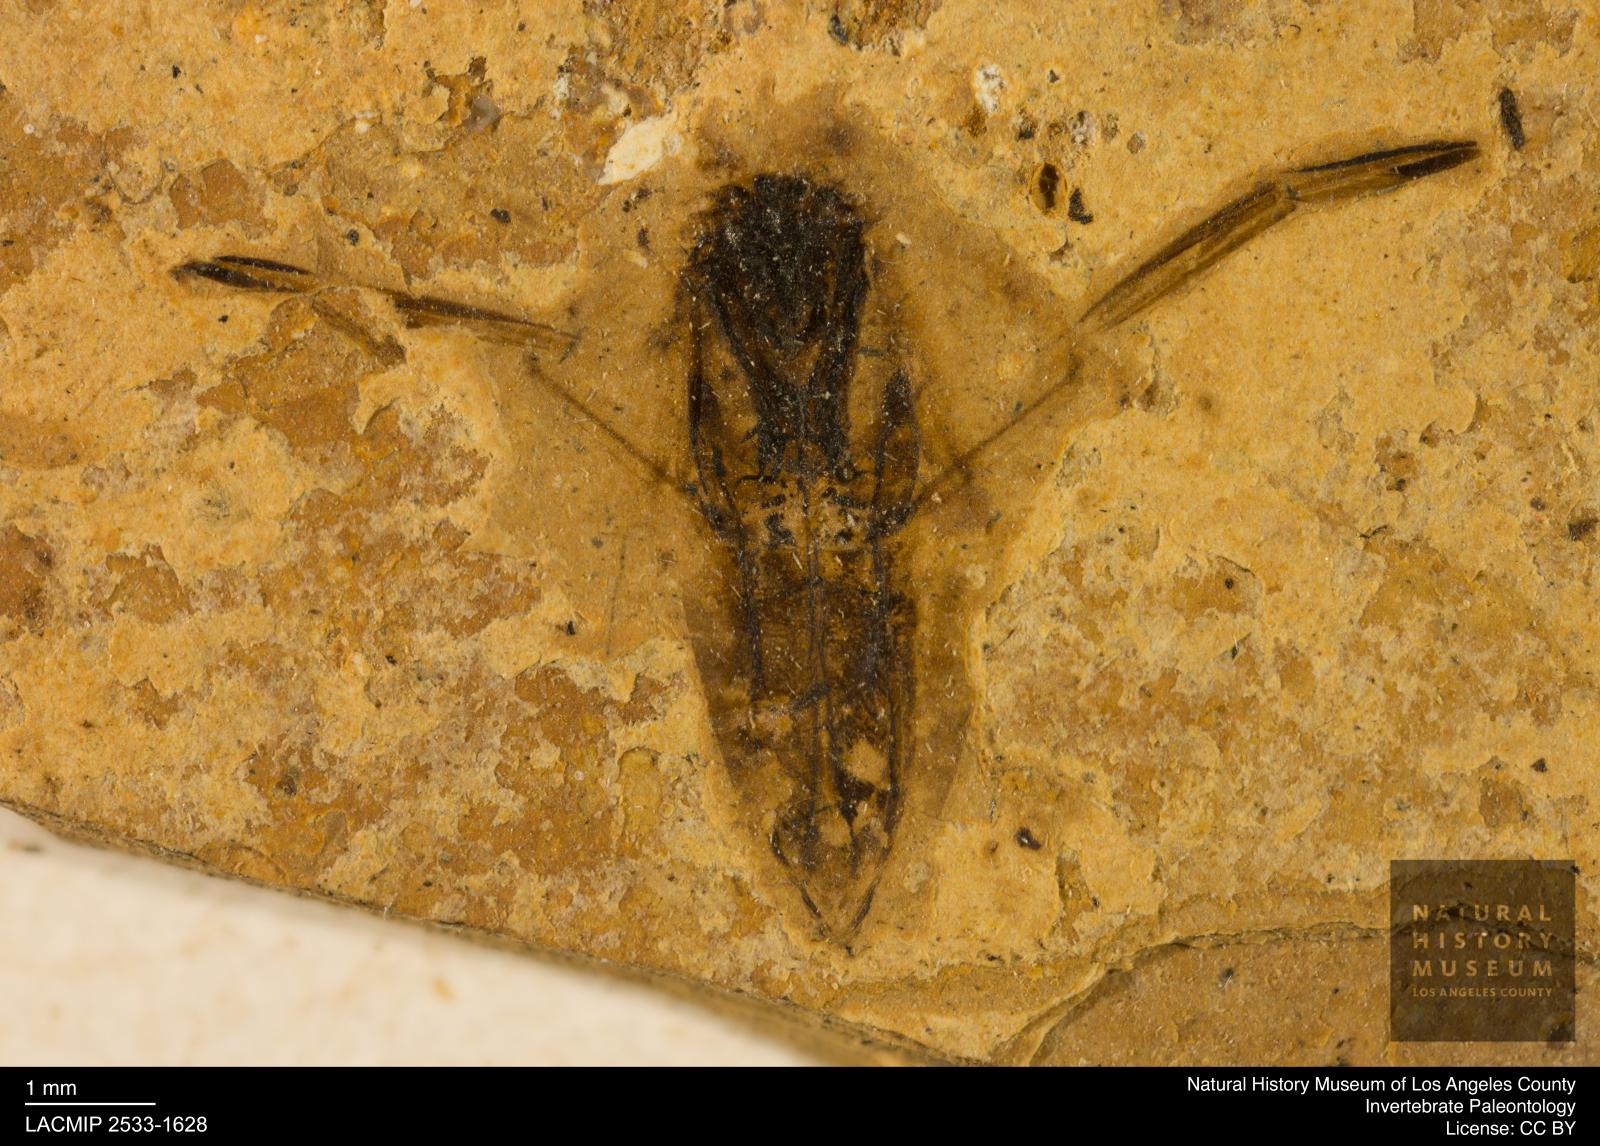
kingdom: Animalia
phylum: Arthropoda
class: Insecta
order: Hemiptera
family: Notonectidae
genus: Notonecta
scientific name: Notonecta
